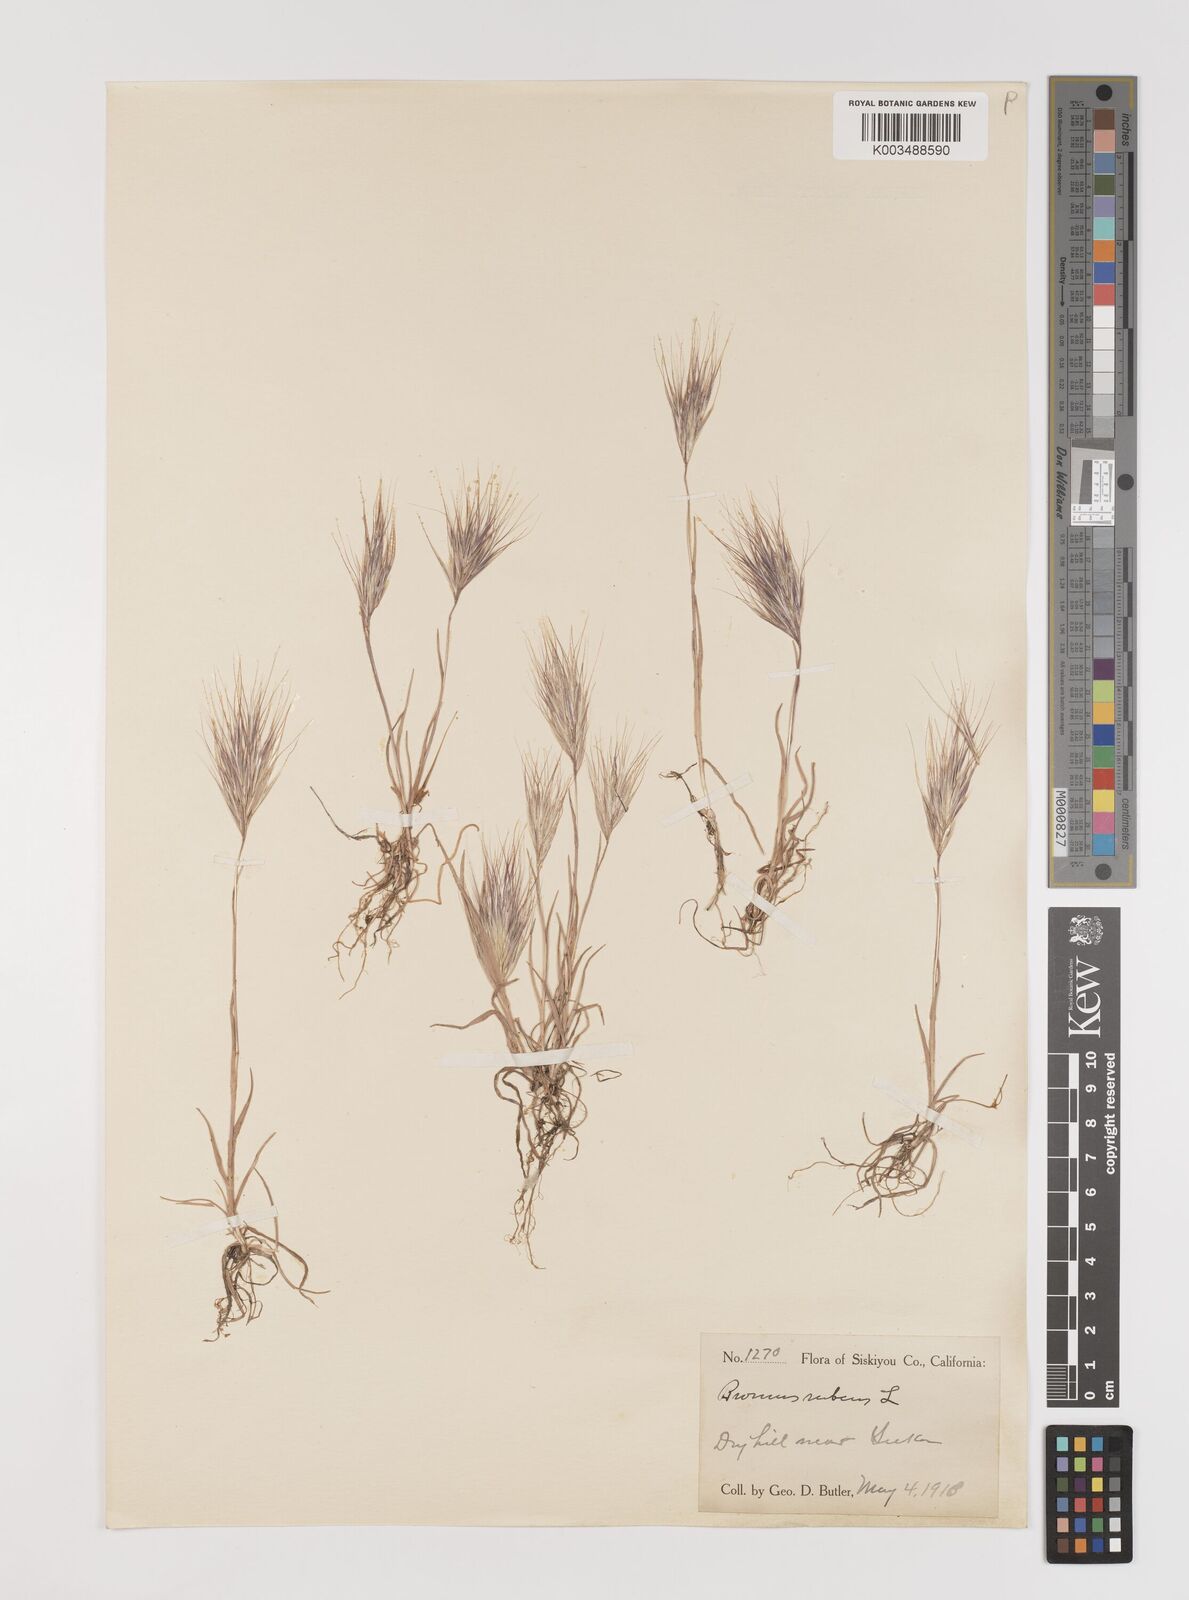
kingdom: Plantae
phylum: Tracheophyta
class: Liliopsida
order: Poales
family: Poaceae
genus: Bromus
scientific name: Bromus rubens
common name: Red brome
